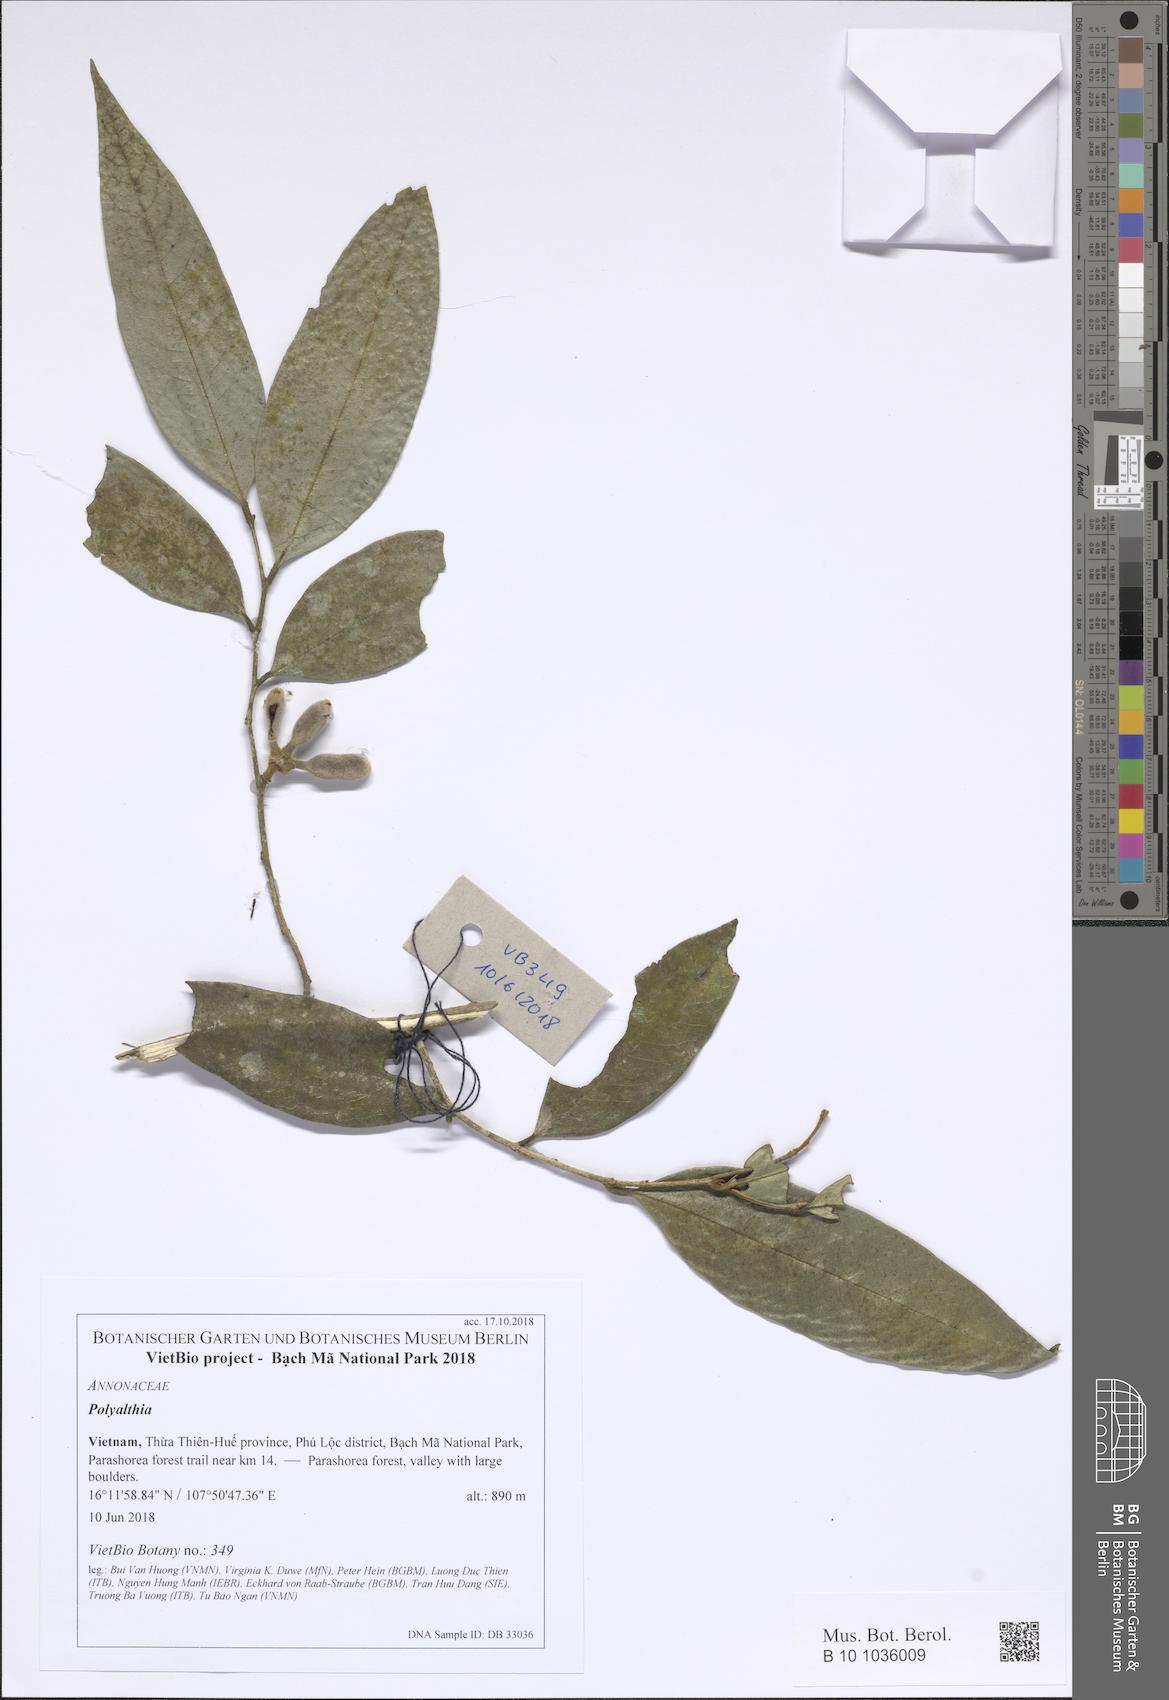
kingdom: Plantae
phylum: Tracheophyta
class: Magnoliopsida
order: Magnoliales
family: Annonaceae
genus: Melodorum
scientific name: Melodorum fruticosum
